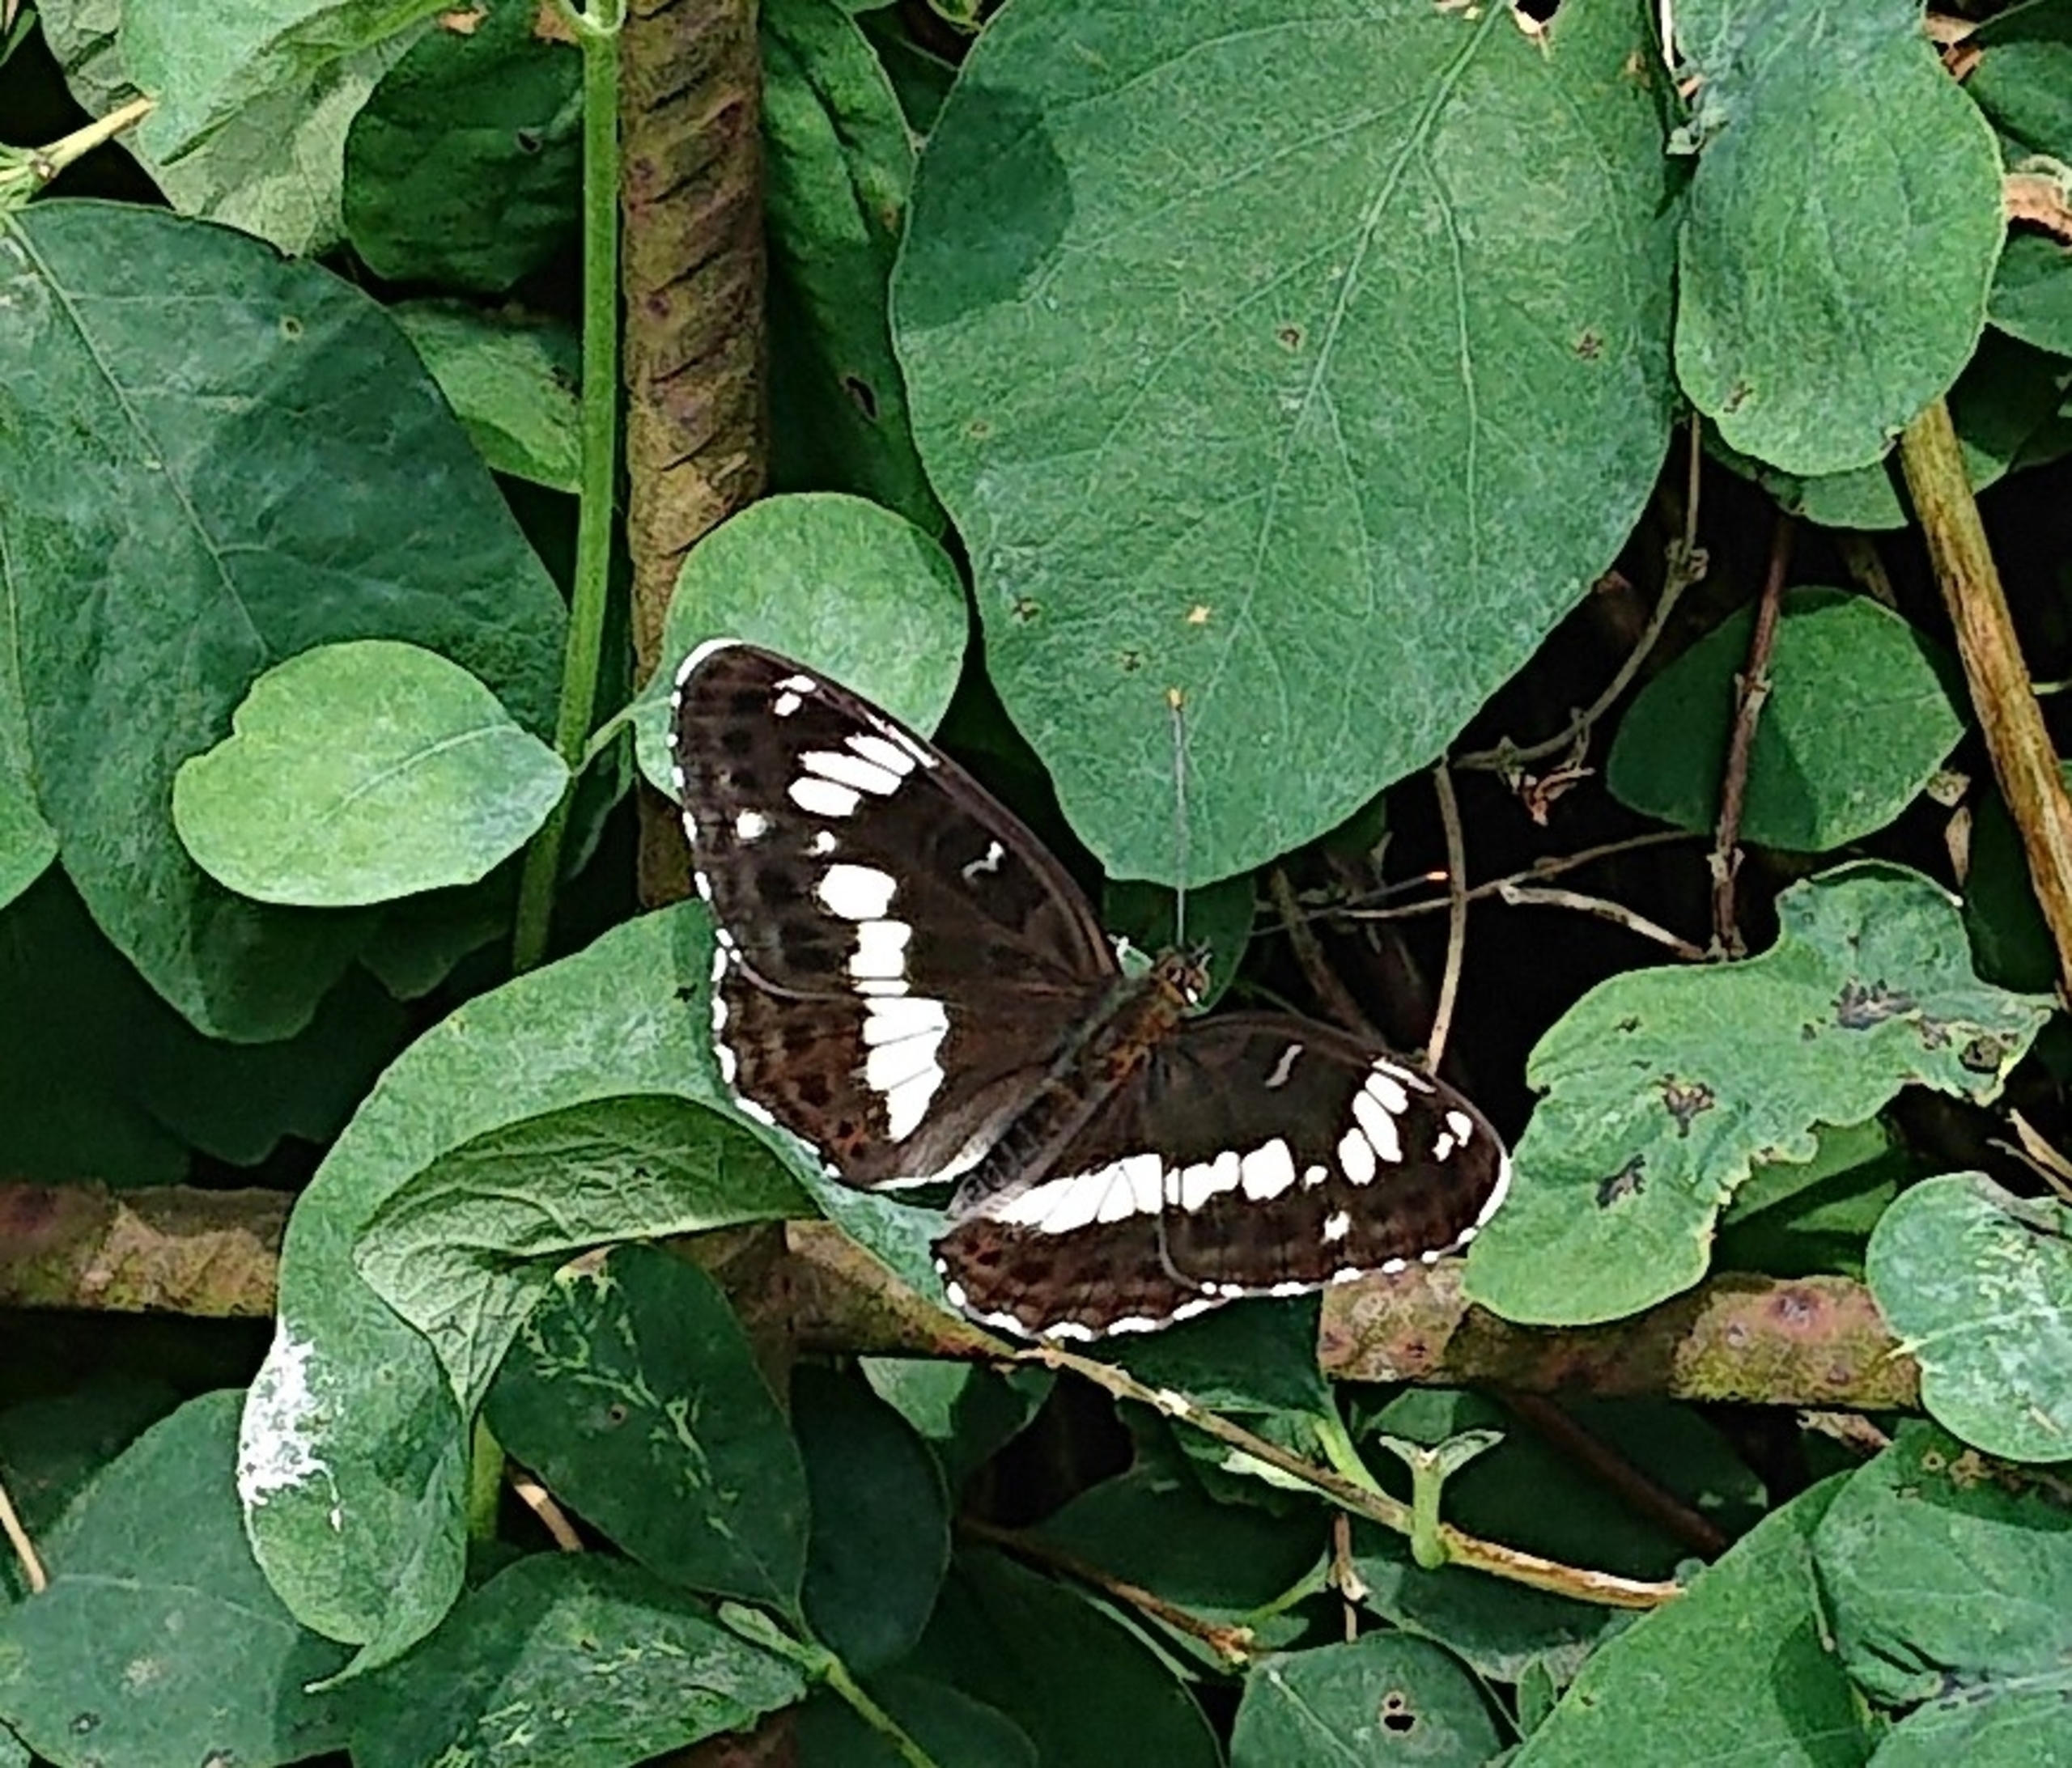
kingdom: Animalia
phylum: Arthropoda
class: Insecta
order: Lepidoptera
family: Nymphalidae
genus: Ladoga
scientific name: Ladoga camilla
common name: Hvid admiral
